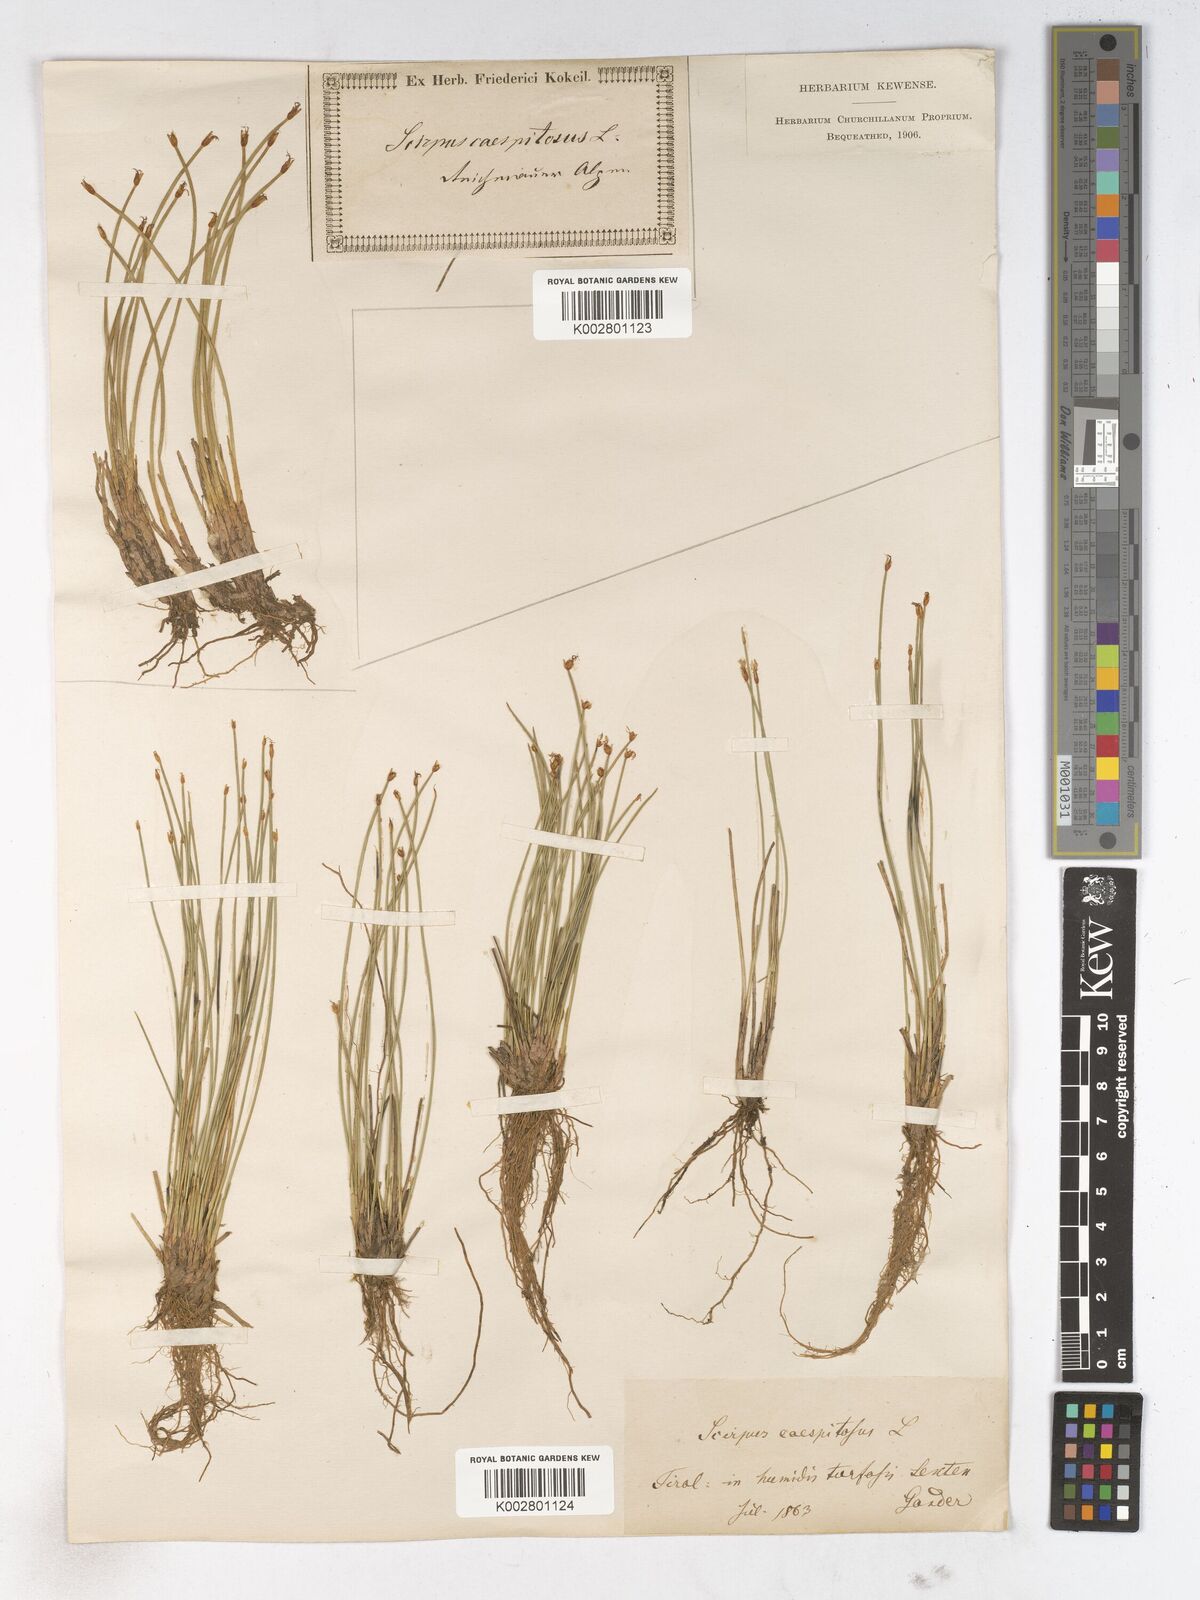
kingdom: Plantae
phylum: Tracheophyta
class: Liliopsida
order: Poales
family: Cyperaceae
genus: Trichophorum
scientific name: Trichophorum cespitosum
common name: Cespitose bulrush
